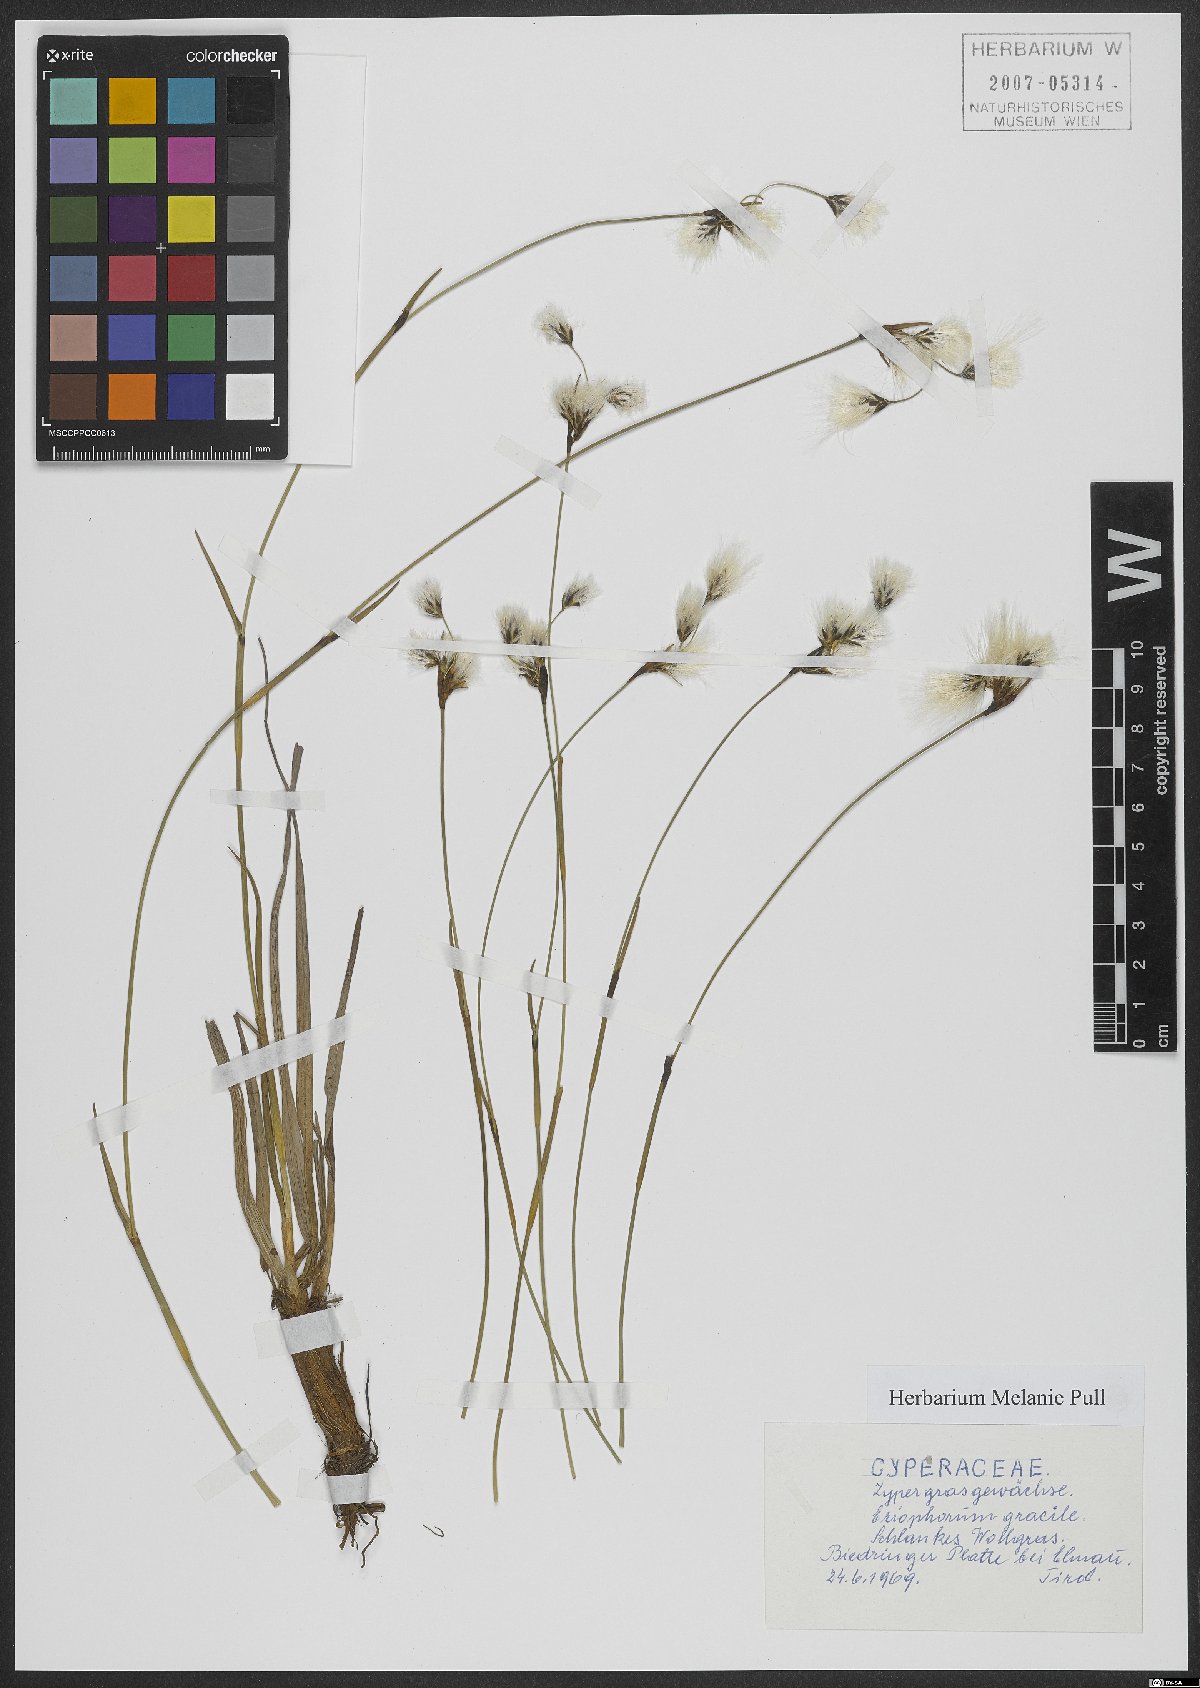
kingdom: Plantae
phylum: Tracheophyta
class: Liliopsida
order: Poales
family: Cyperaceae
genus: Eriophorum
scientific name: Eriophorum gracile
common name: Slender cottongrass
